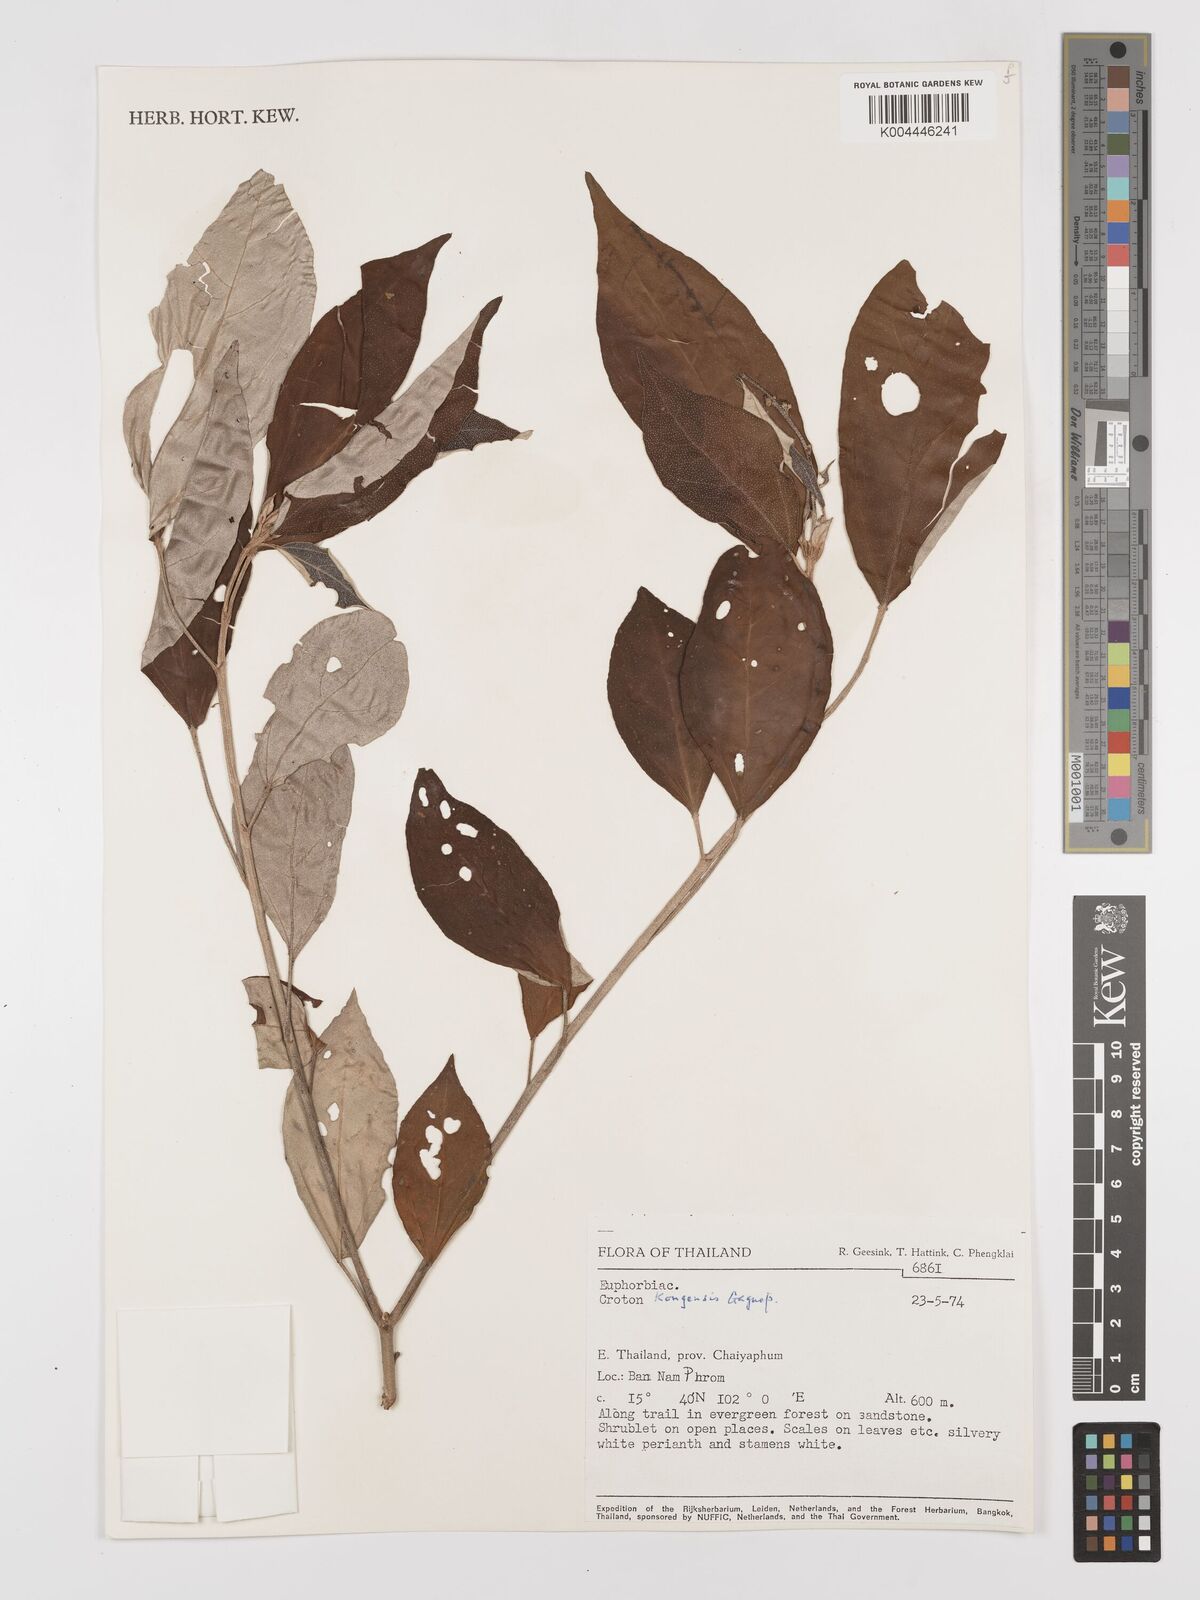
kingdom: Plantae
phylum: Tracheophyta
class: Magnoliopsida
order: Malpighiales
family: Euphorbiaceae
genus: Croton
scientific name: Croton kongensis
